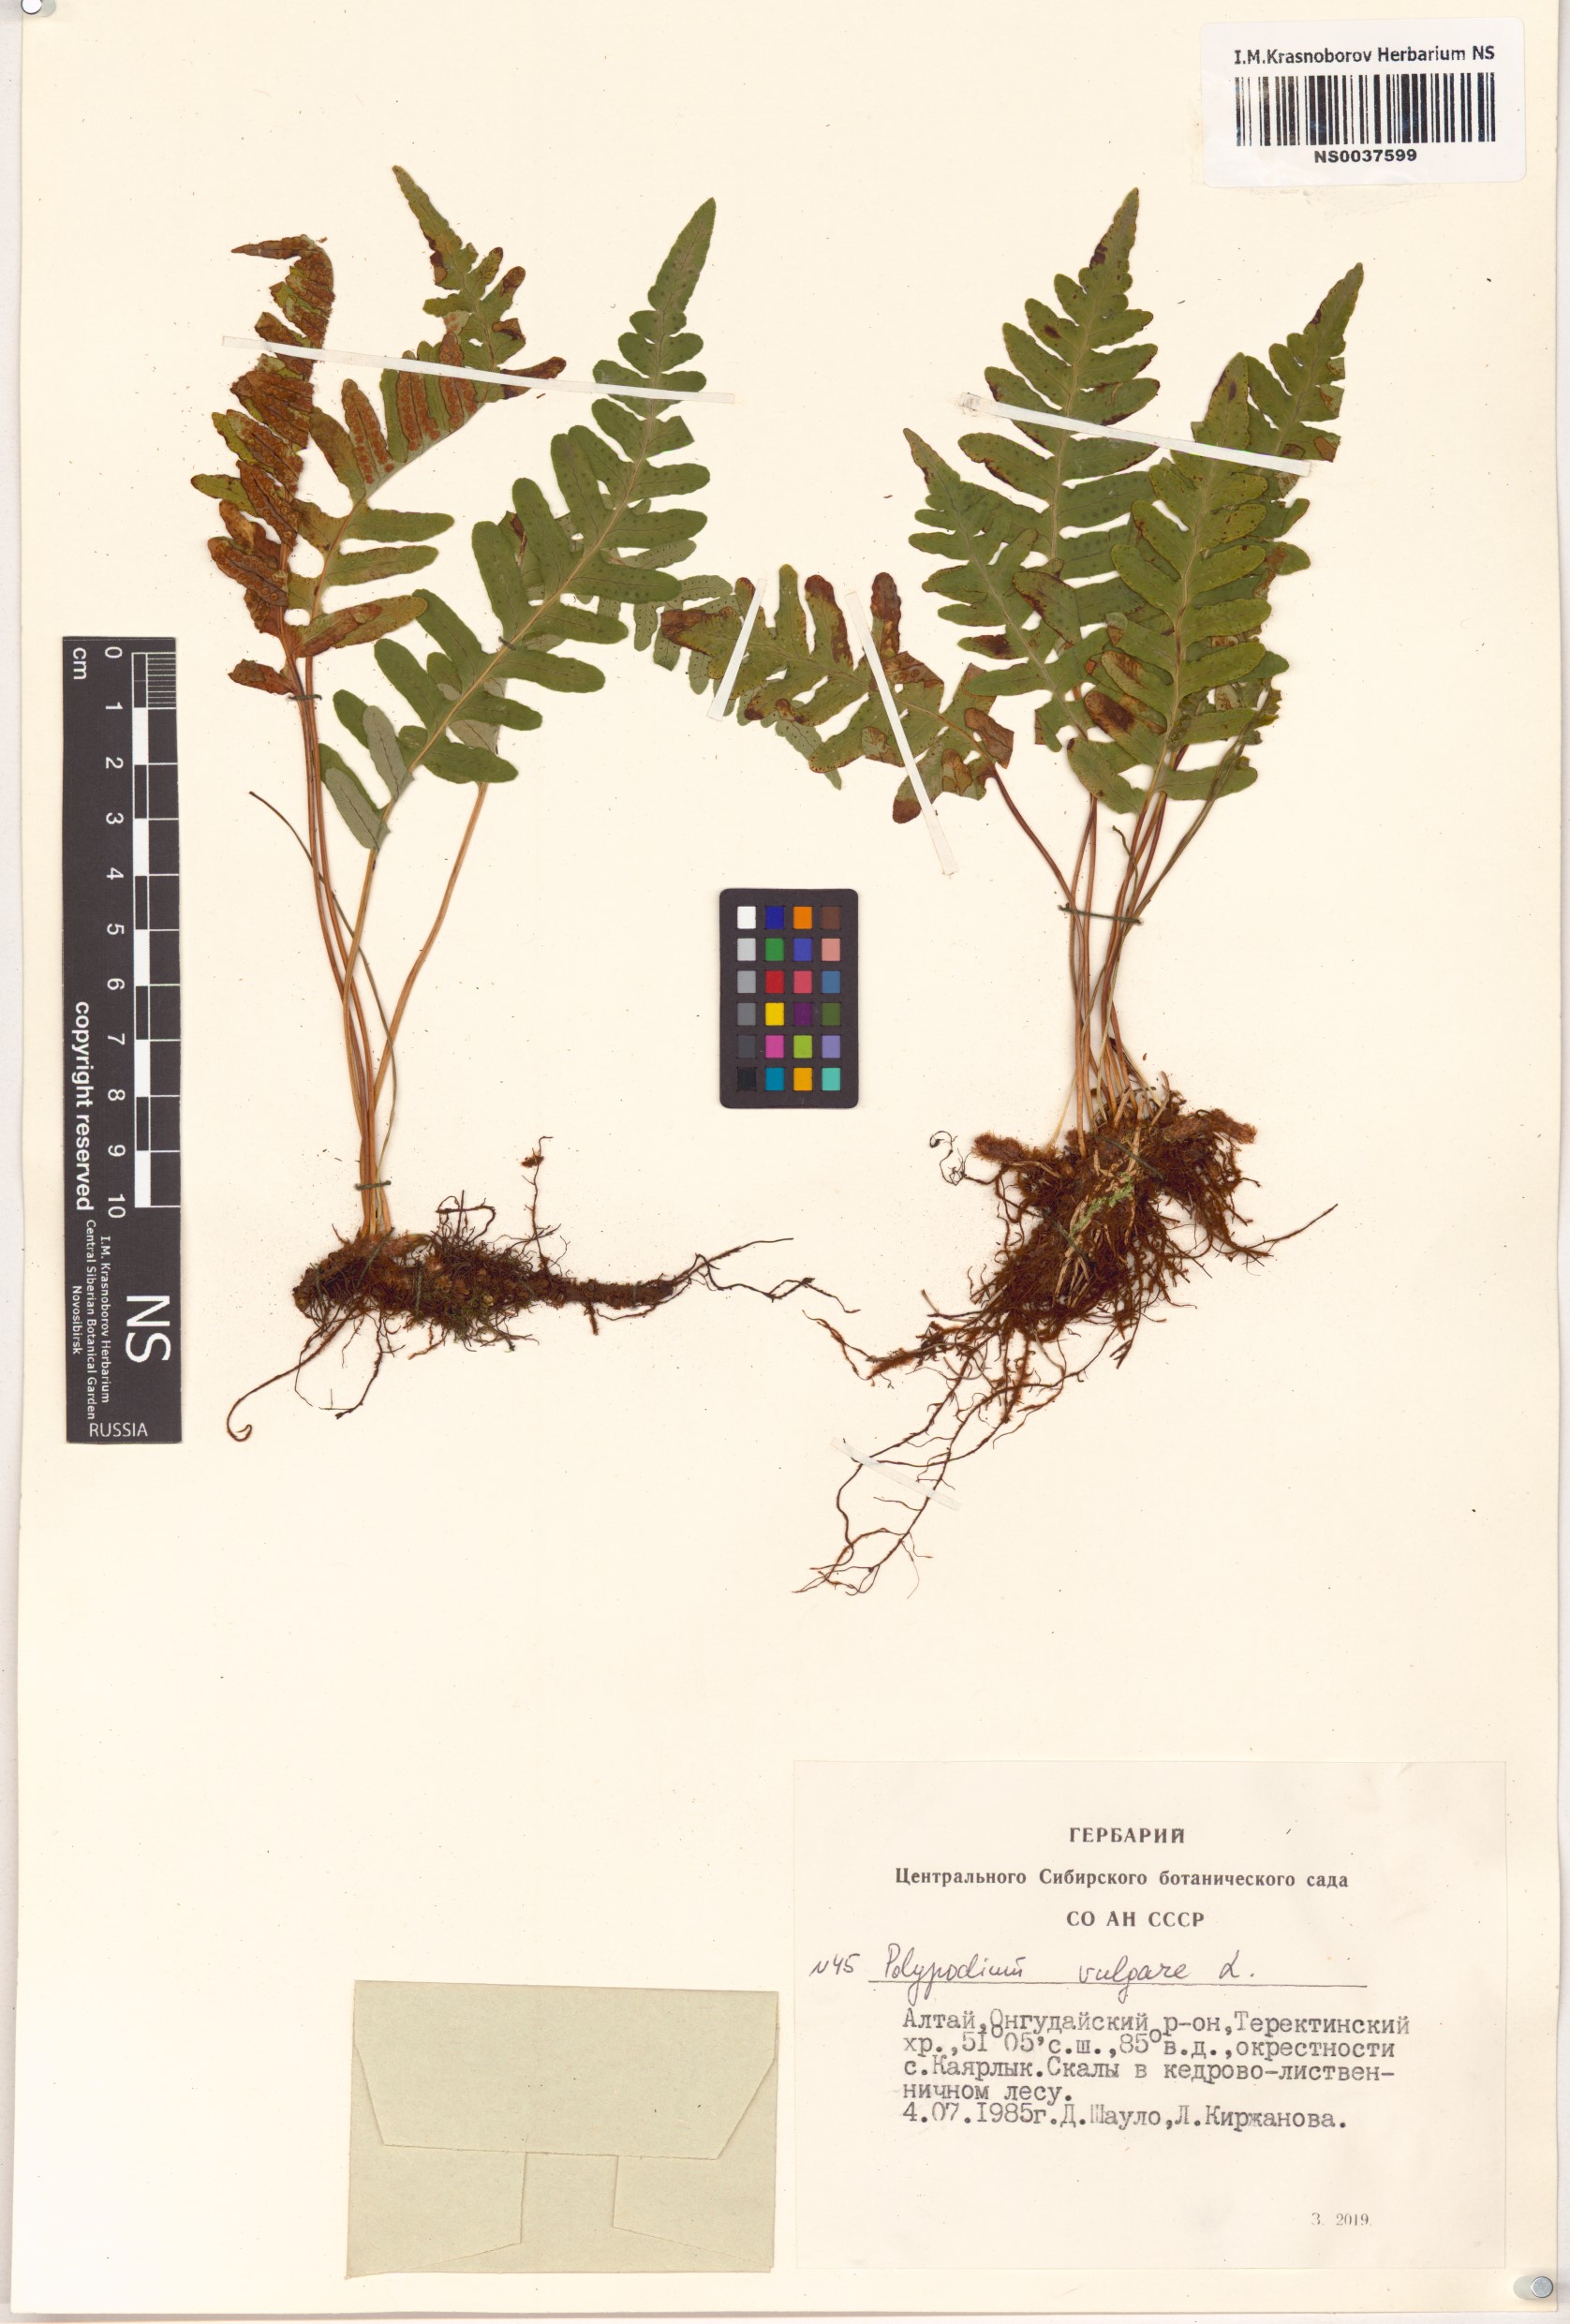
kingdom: Plantae
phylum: Tracheophyta
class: Polypodiopsida
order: Polypodiales
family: Polypodiaceae
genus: Polypodium
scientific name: Polypodium vulgare
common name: Common polypody
